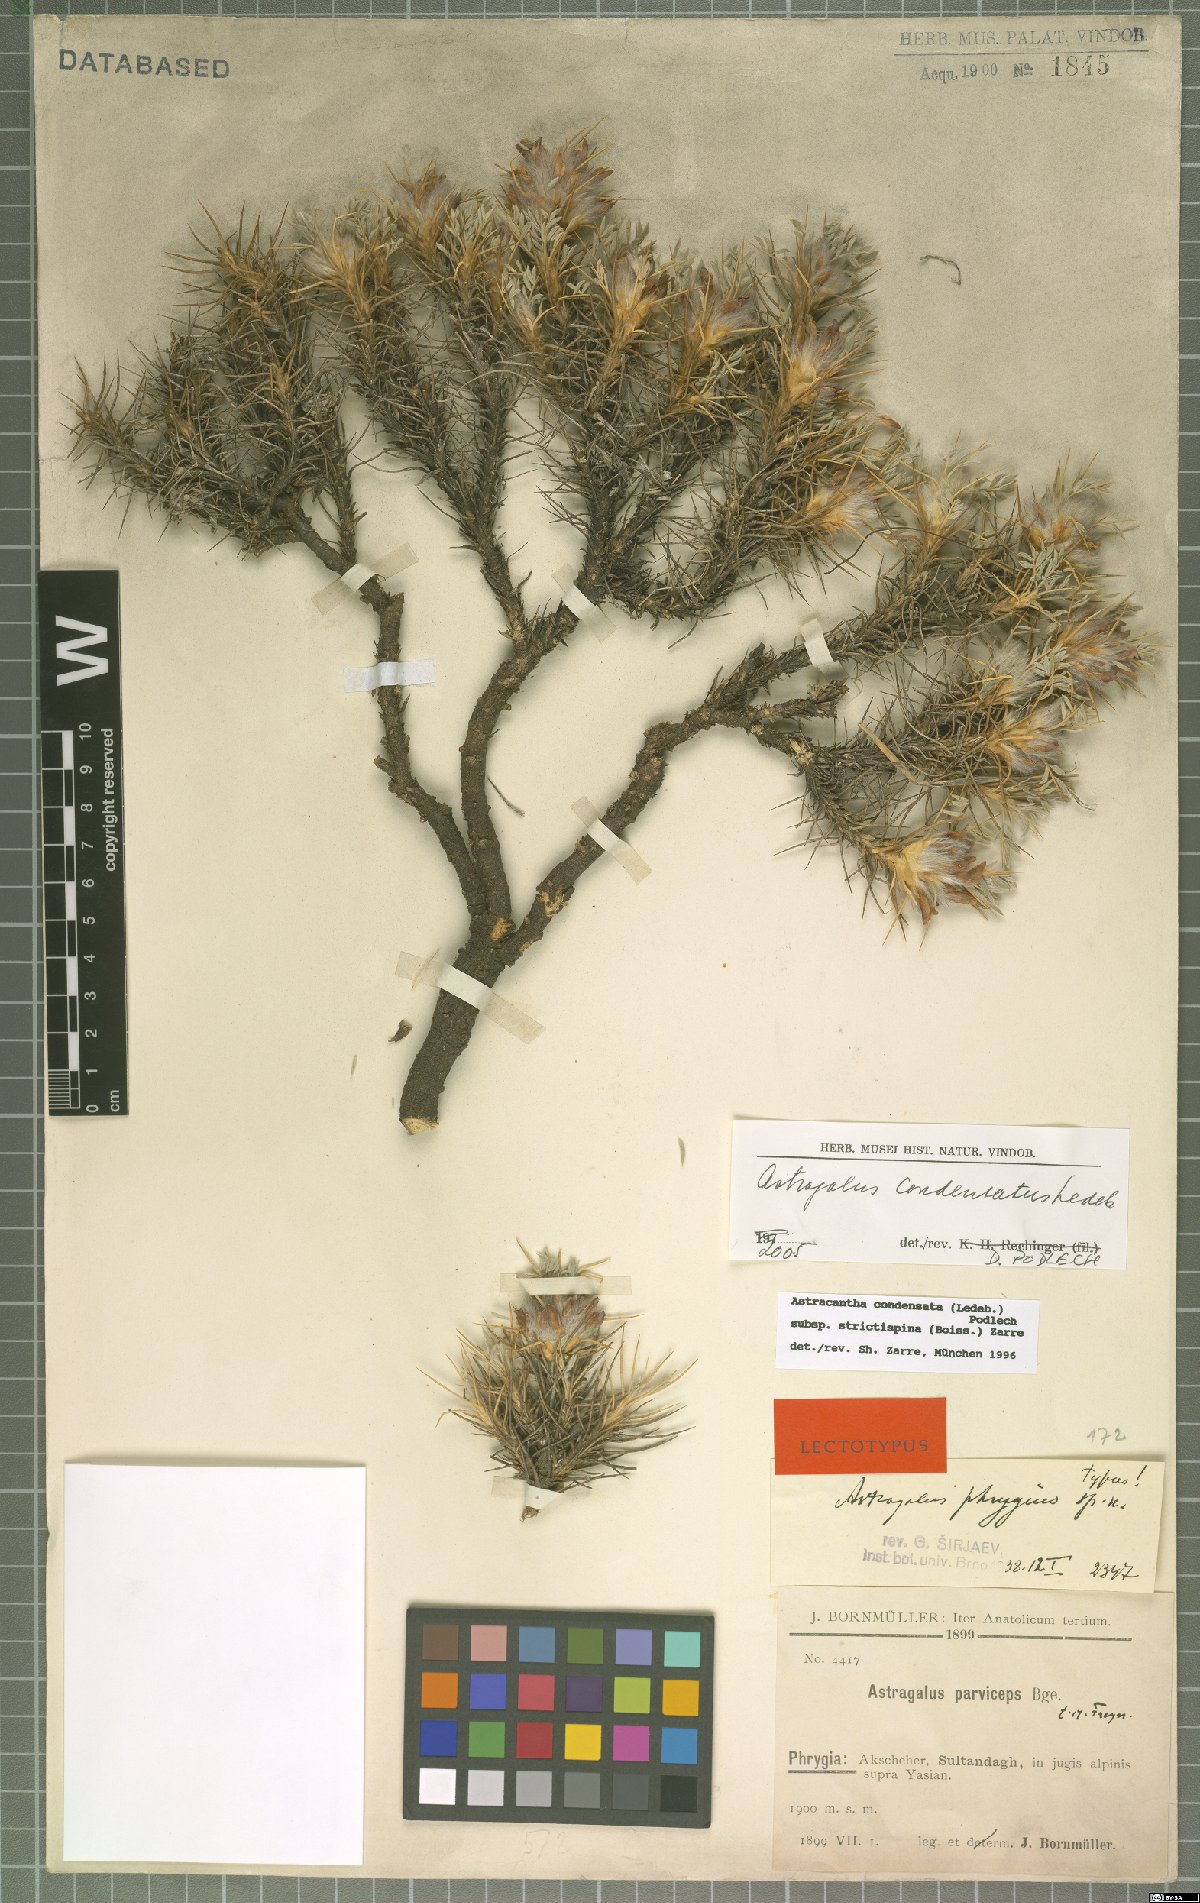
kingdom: Plantae
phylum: Tracheophyta
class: Magnoliopsida
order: Fabales
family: Fabaceae
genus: Astragalus
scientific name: Astragalus phrygius
